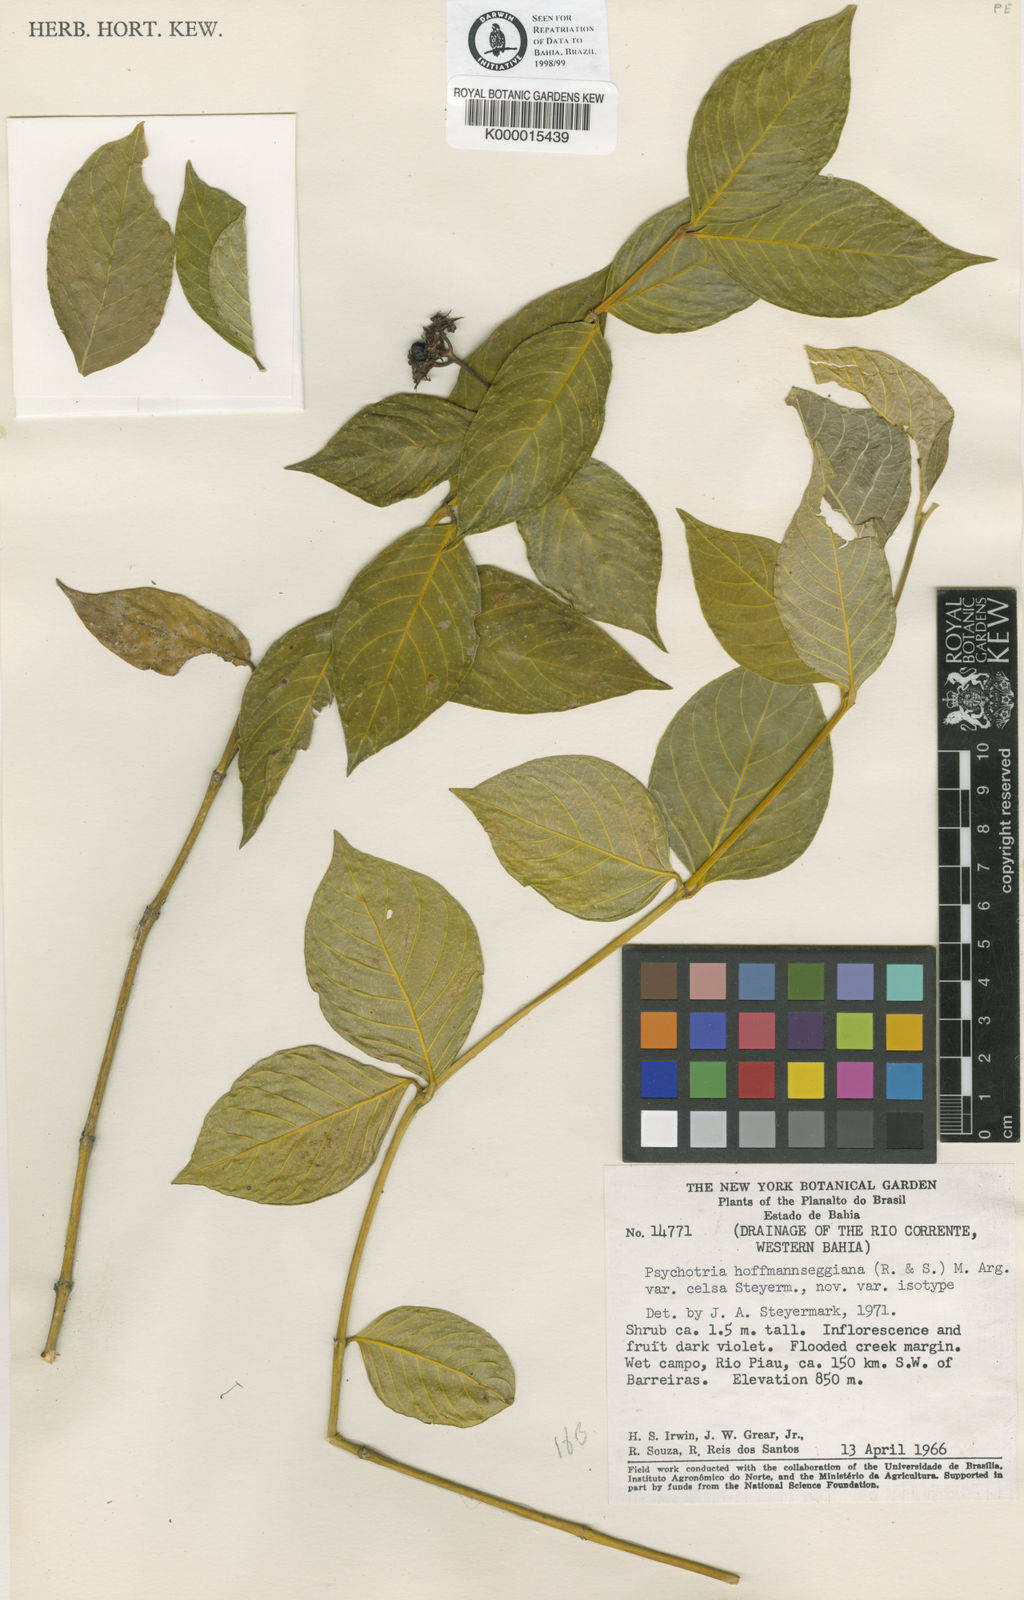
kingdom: Plantae
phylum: Tracheophyta
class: Magnoliopsida
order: Gentianales
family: Rubiaceae
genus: Psychotria
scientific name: Psychotria
